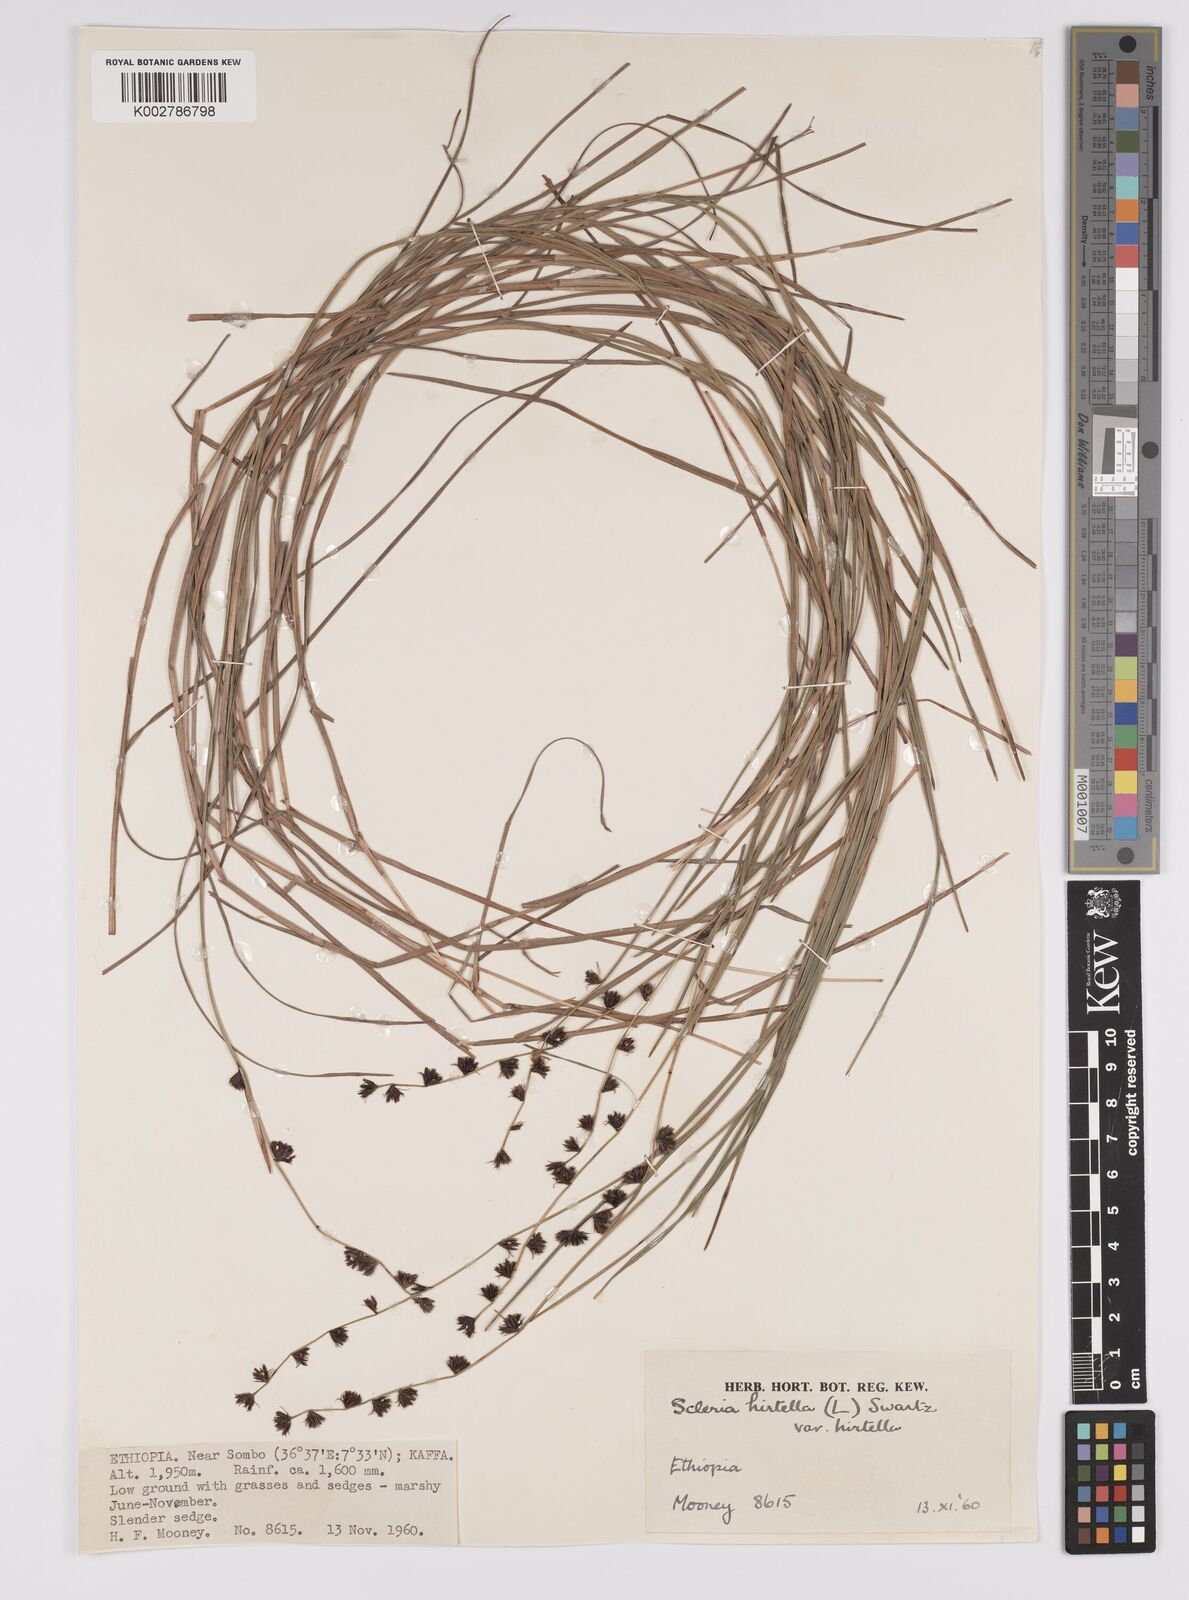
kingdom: Plantae
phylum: Tracheophyta
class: Liliopsida
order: Poales
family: Cyperaceae
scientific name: Cyperaceae
